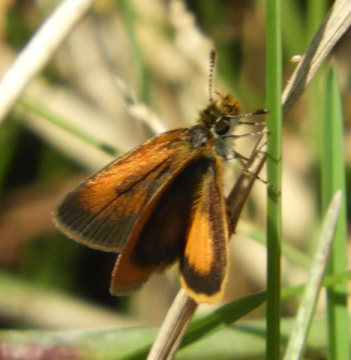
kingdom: Animalia
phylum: Arthropoda
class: Insecta
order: Lepidoptera
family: Hesperiidae
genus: Ancyloxypha
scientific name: Ancyloxypha numitor
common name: Least Skipper
